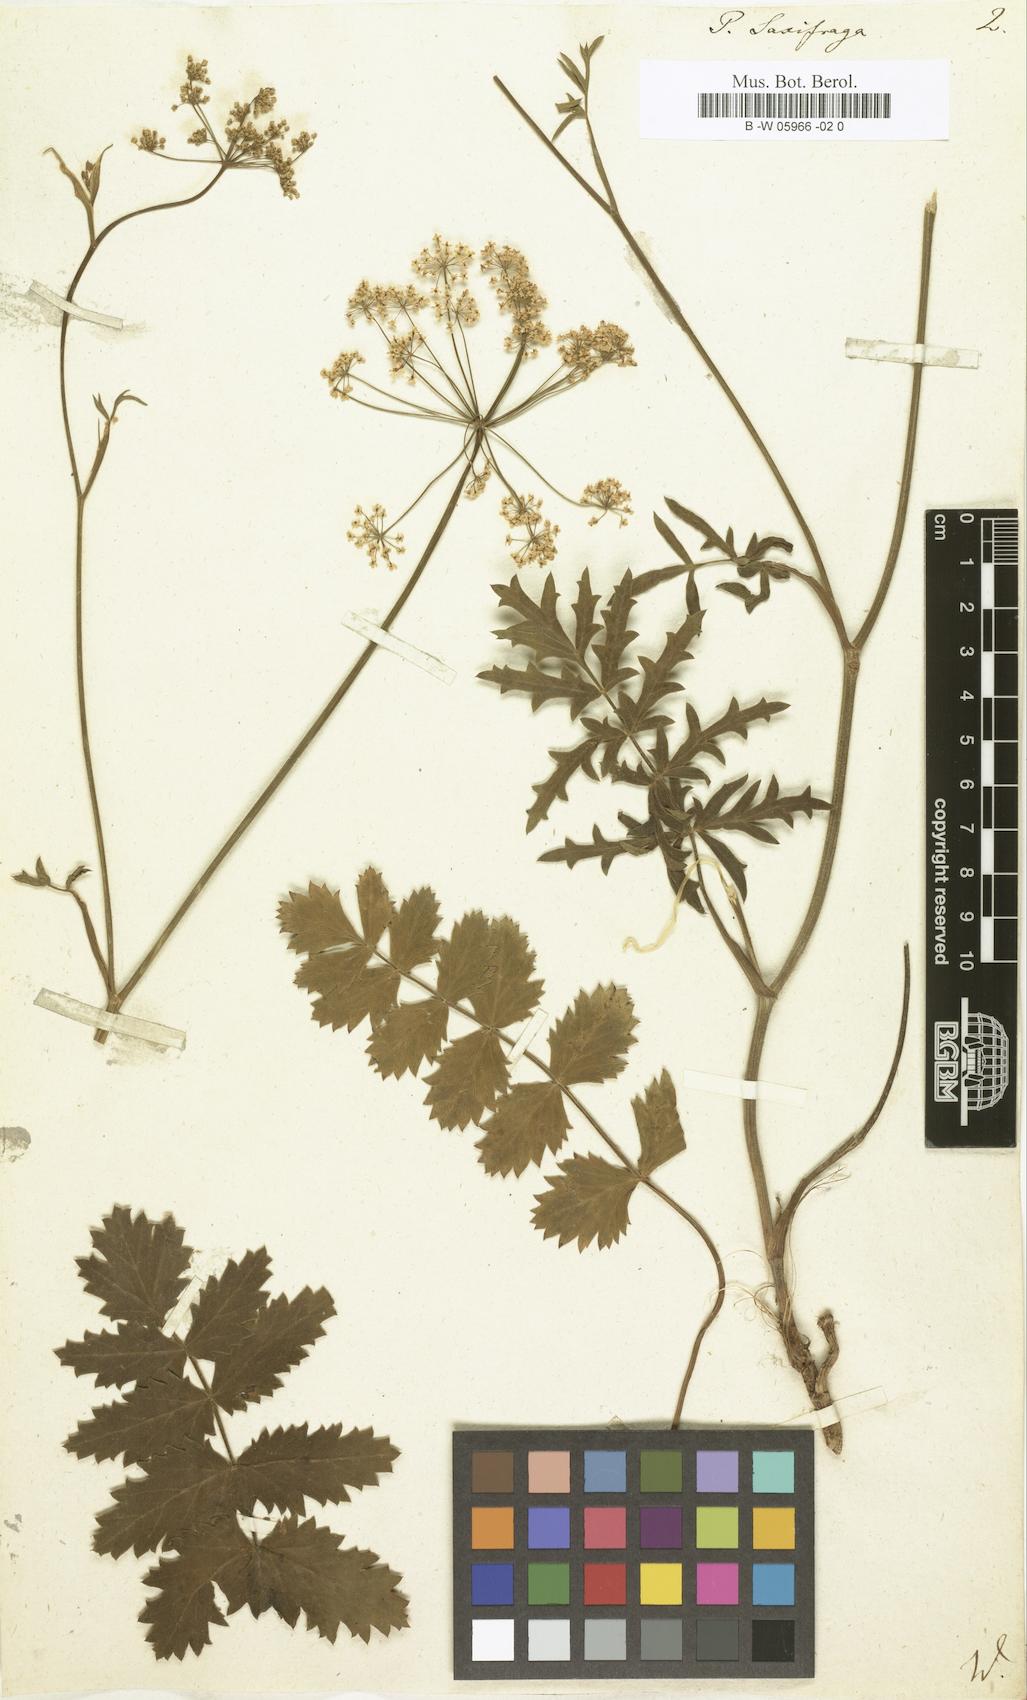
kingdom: Plantae
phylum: Tracheophyta
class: Magnoliopsida
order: Apiales
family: Apiaceae
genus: Pimpinella
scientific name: Pimpinella saxifraga
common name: Burnet-saxifrage
